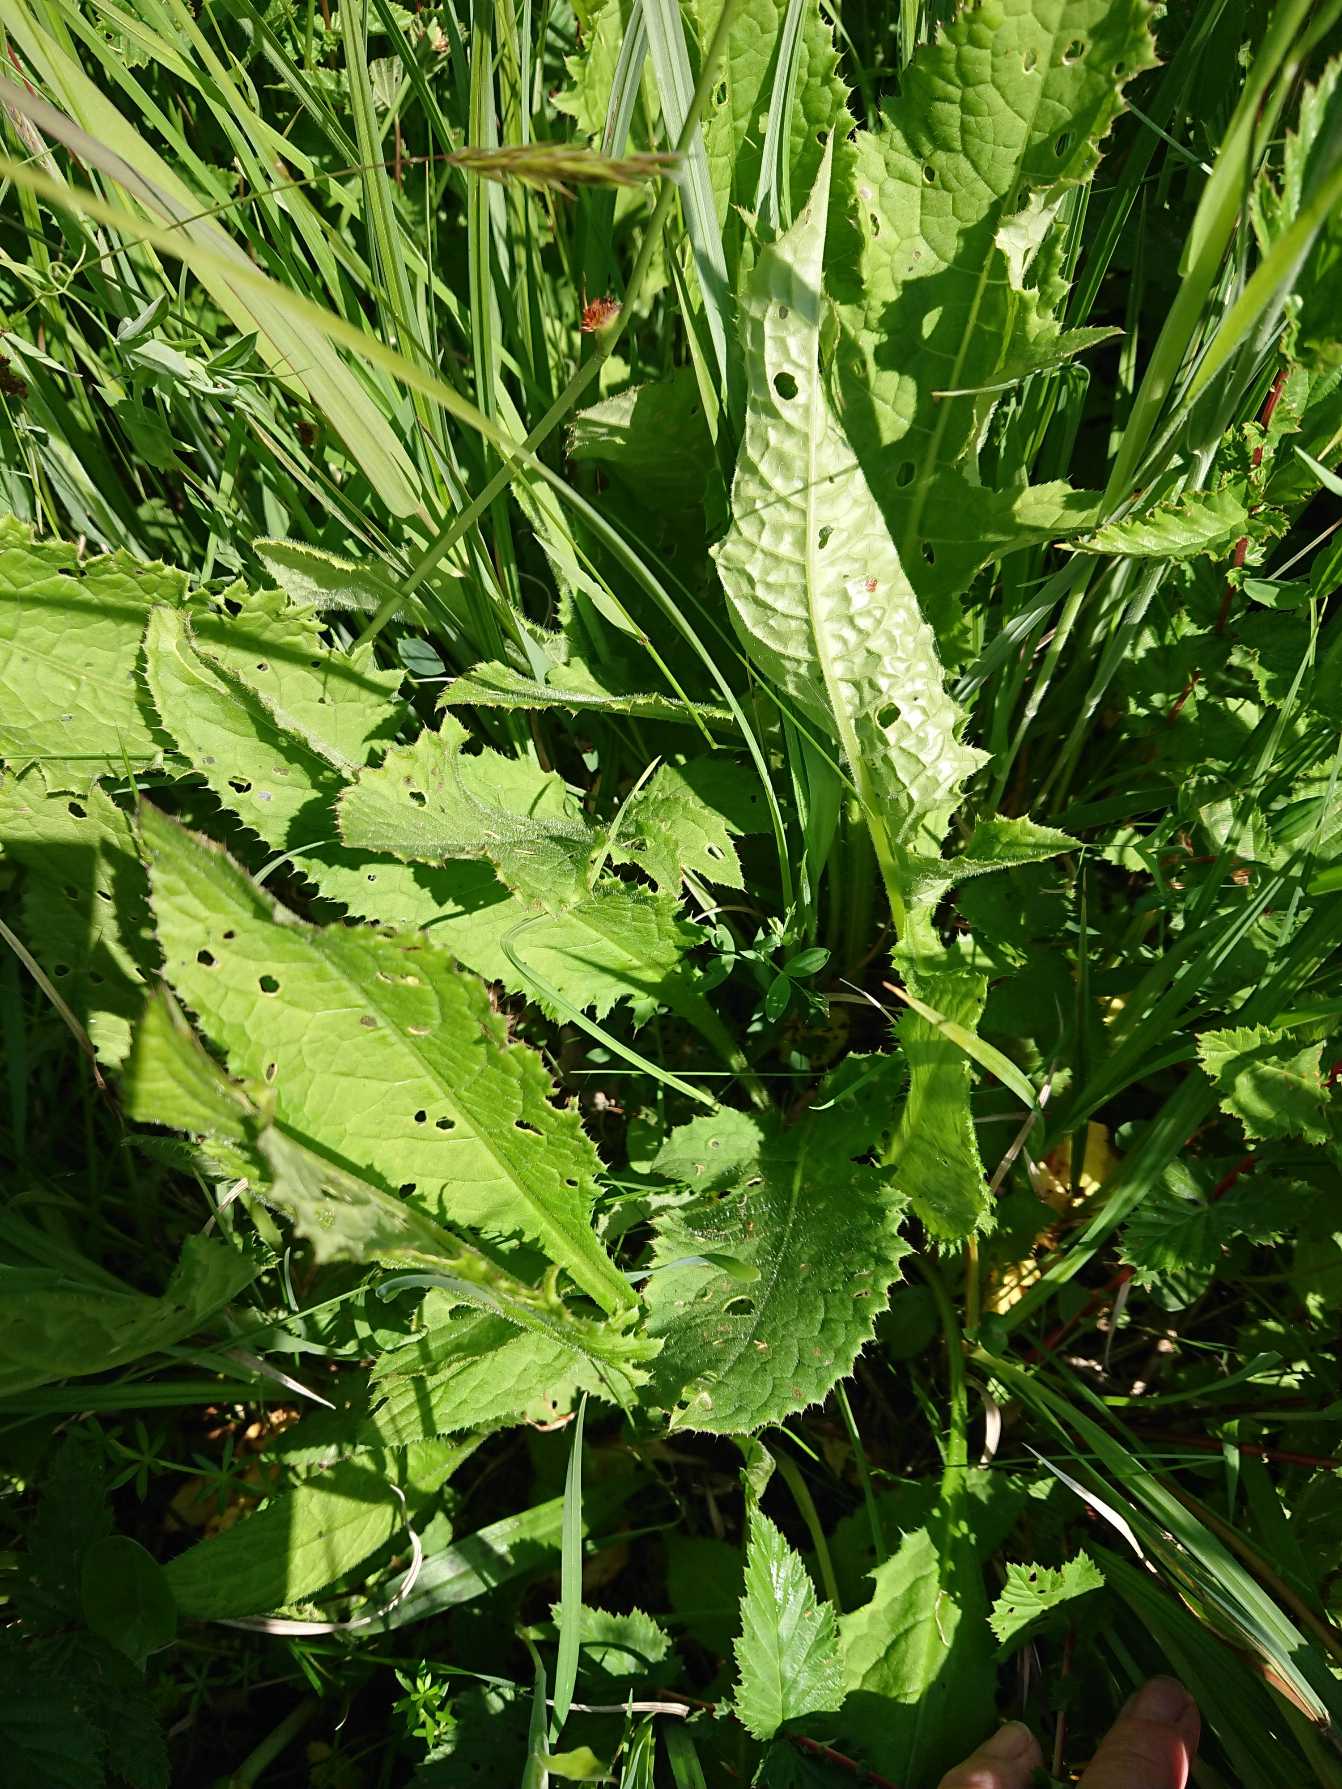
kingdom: Plantae
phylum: Tracheophyta
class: Magnoliopsida
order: Asterales
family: Asteraceae
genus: Cirsium
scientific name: Cirsium oleraceum
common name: Kål-tidsel
